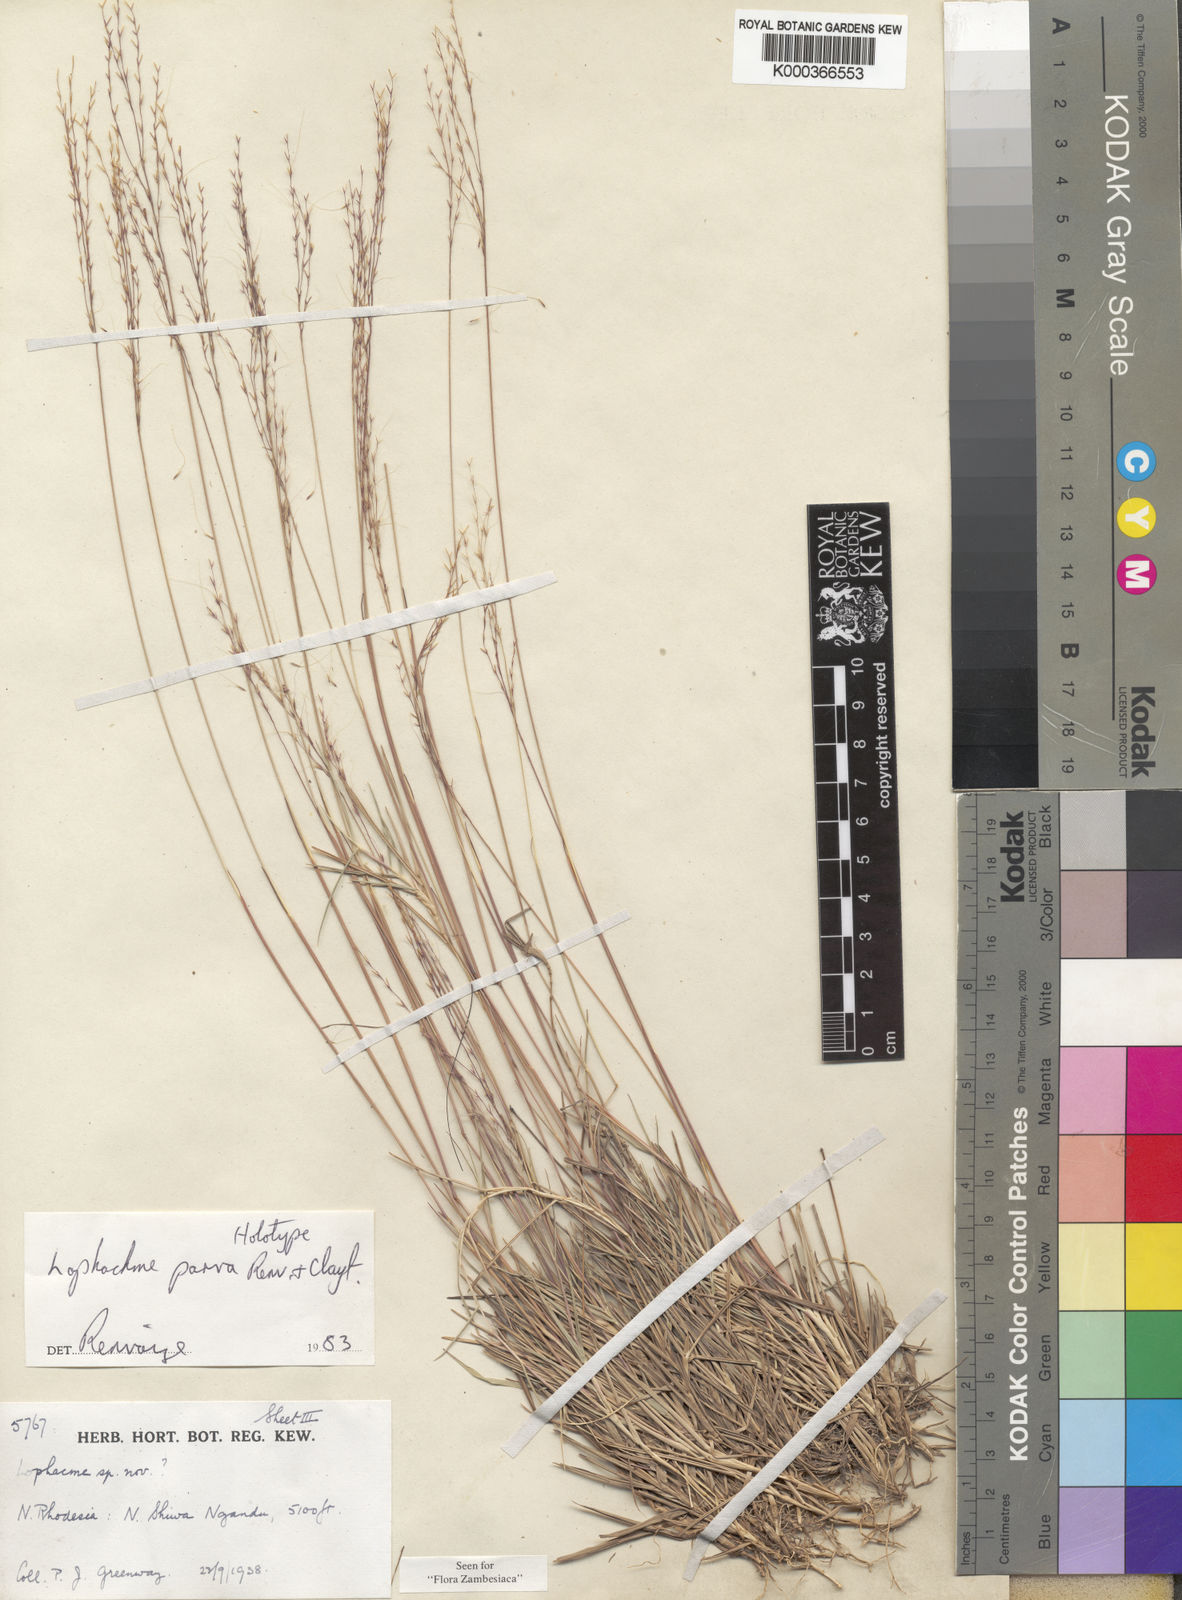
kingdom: Plantae
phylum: Tracheophyta
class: Liliopsida
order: Poales
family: Poaceae
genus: Lophacme
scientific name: Lophacme parva
